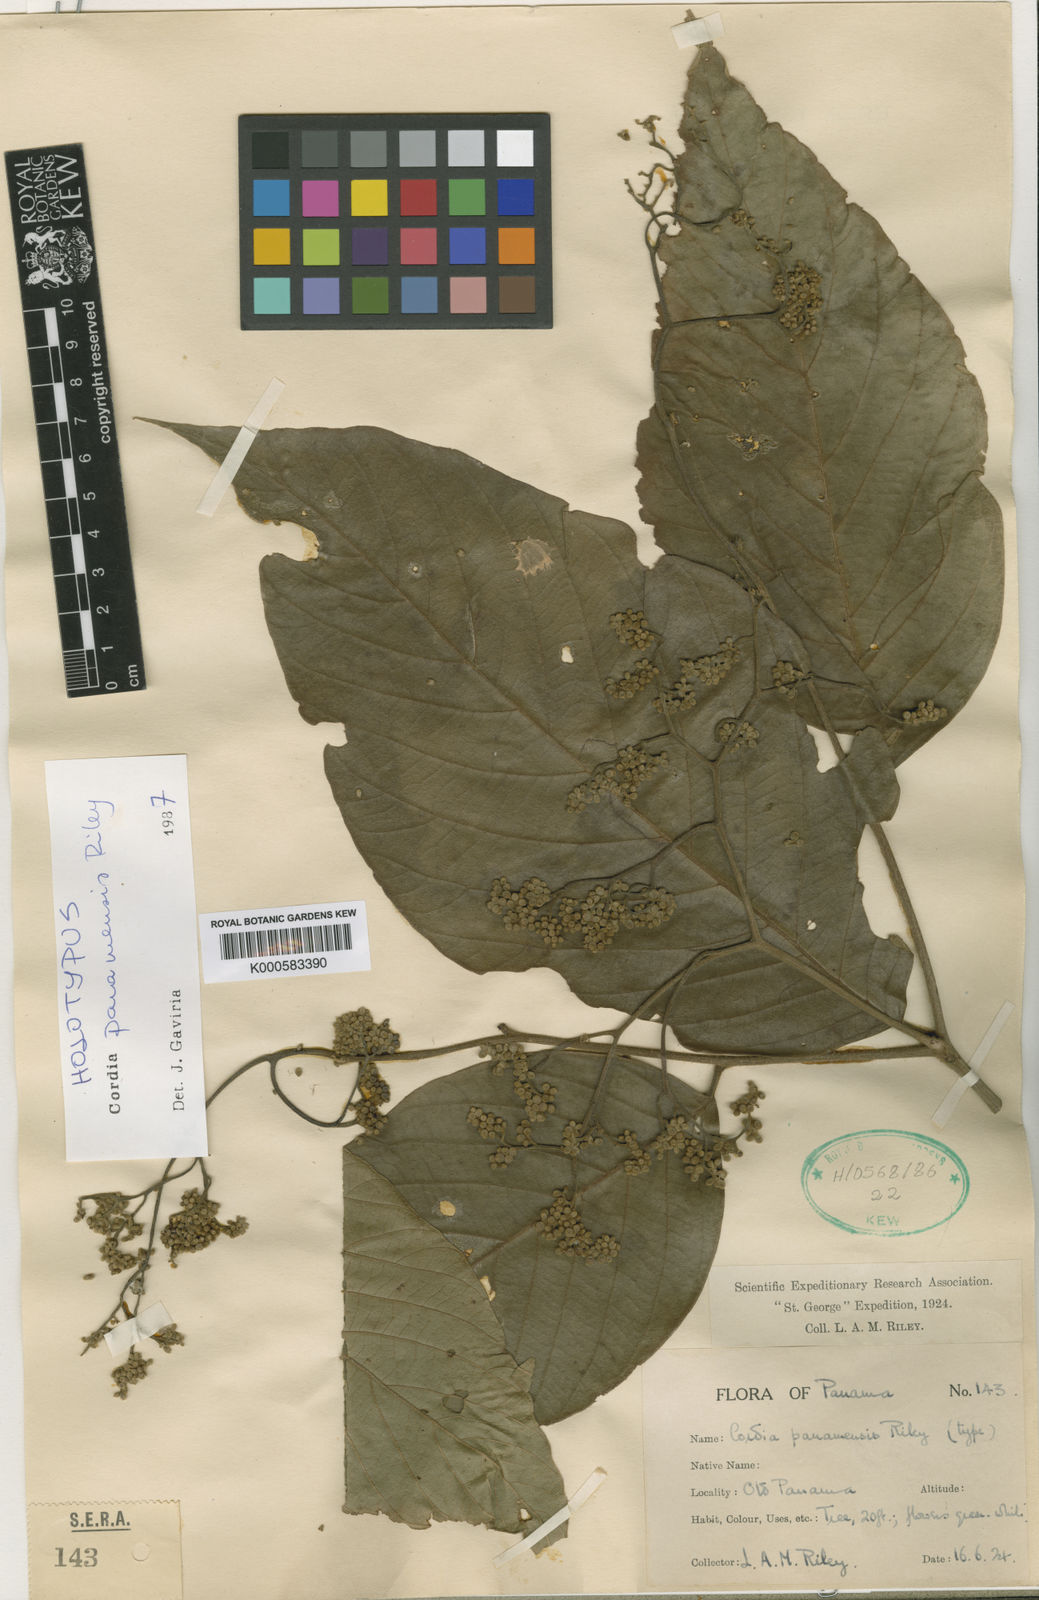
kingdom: Plantae
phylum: Tracheophyta
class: Magnoliopsida
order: Boraginales
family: Cordiaceae
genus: Cordia
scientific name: Cordia panamensis
